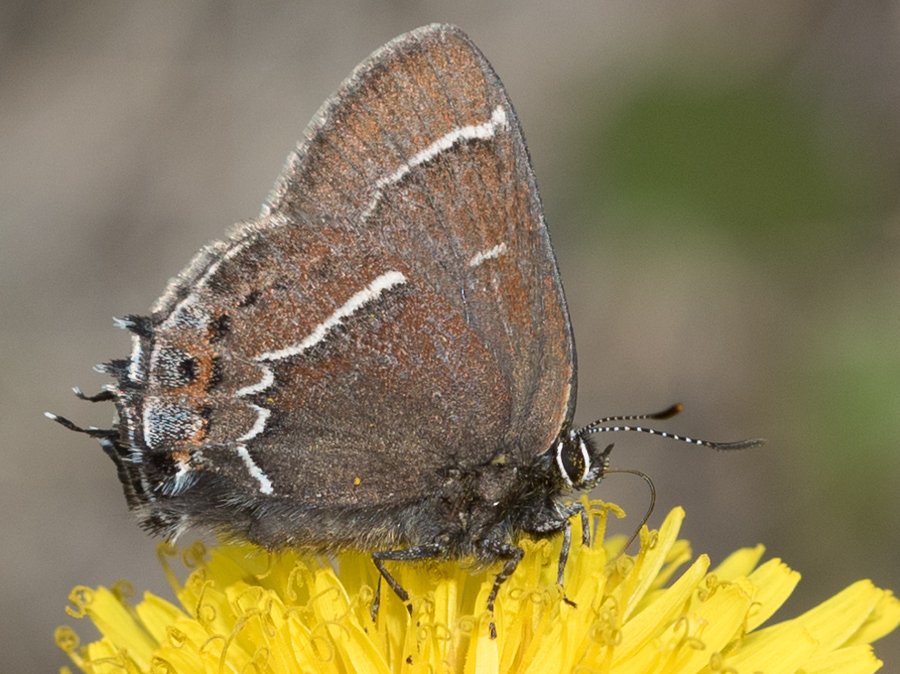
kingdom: Animalia
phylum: Arthropoda
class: Insecta
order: Lepidoptera
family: Lycaenidae
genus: Mitoura
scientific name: Mitoura spinetorum
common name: Thicket Hairstreak
